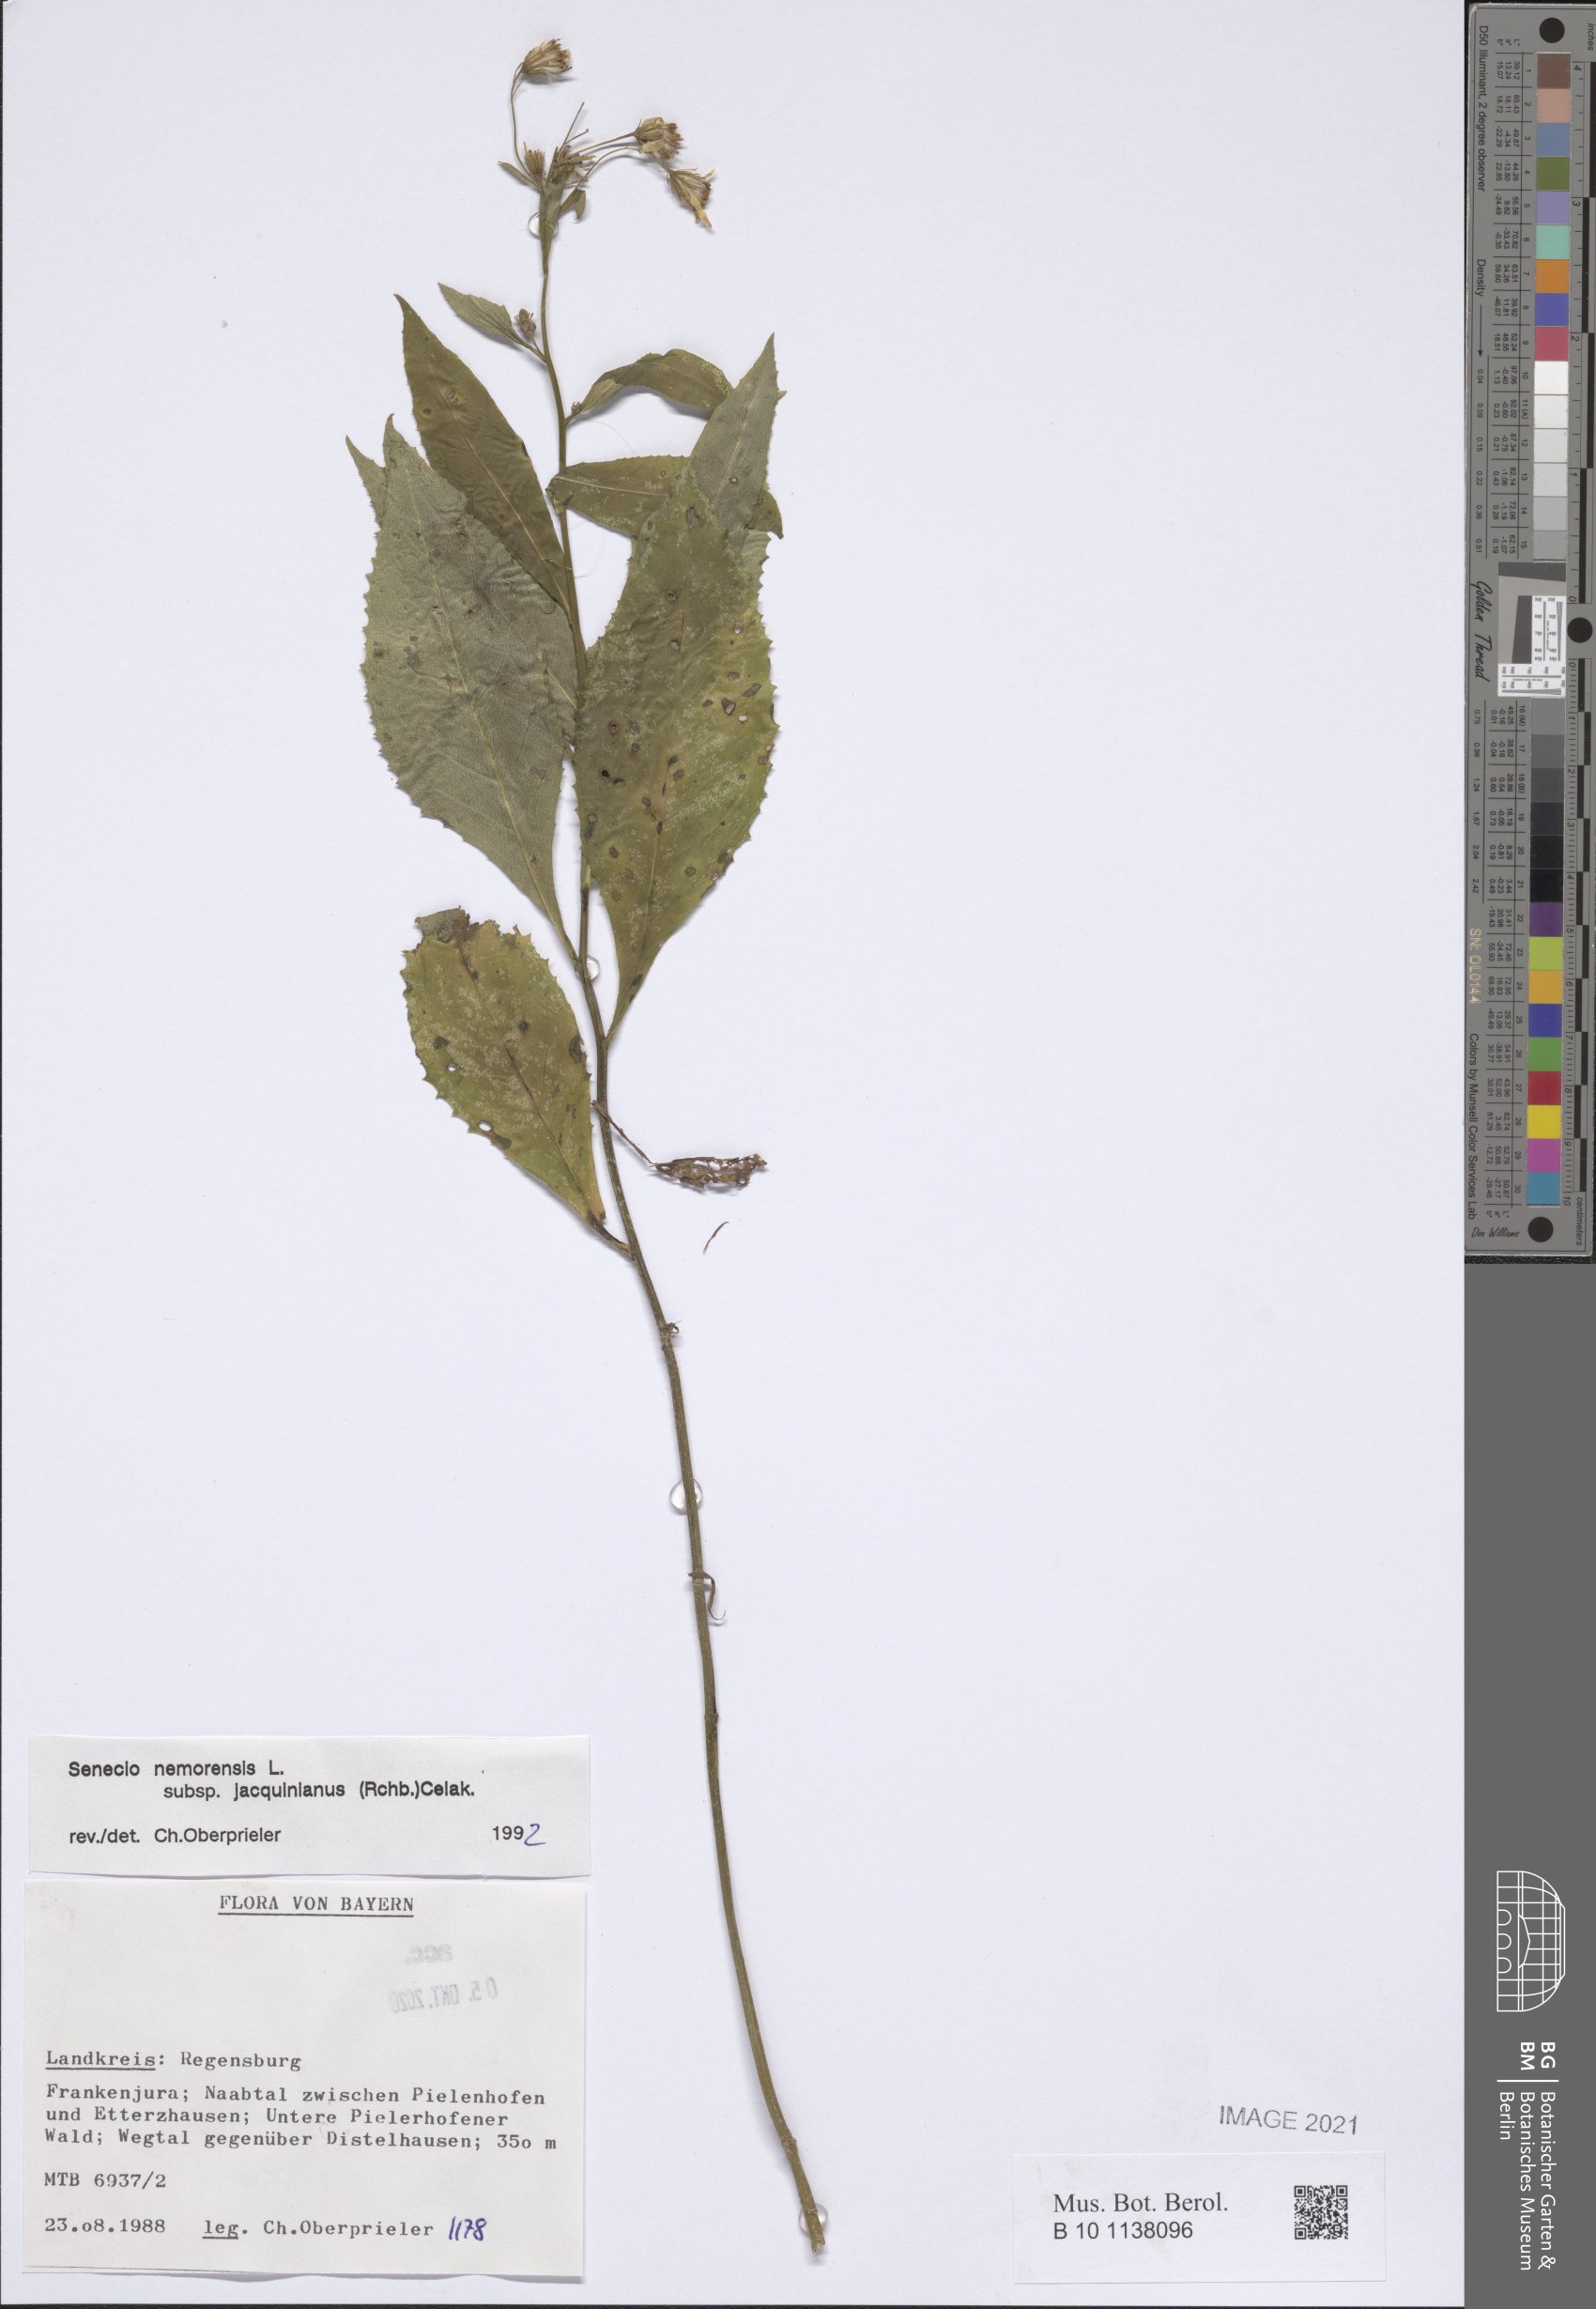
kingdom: Plantae
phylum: Tracheophyta
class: Magnoliopsida
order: Asterales
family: Asteraceae
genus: Senecio
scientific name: Senecio germanicus
